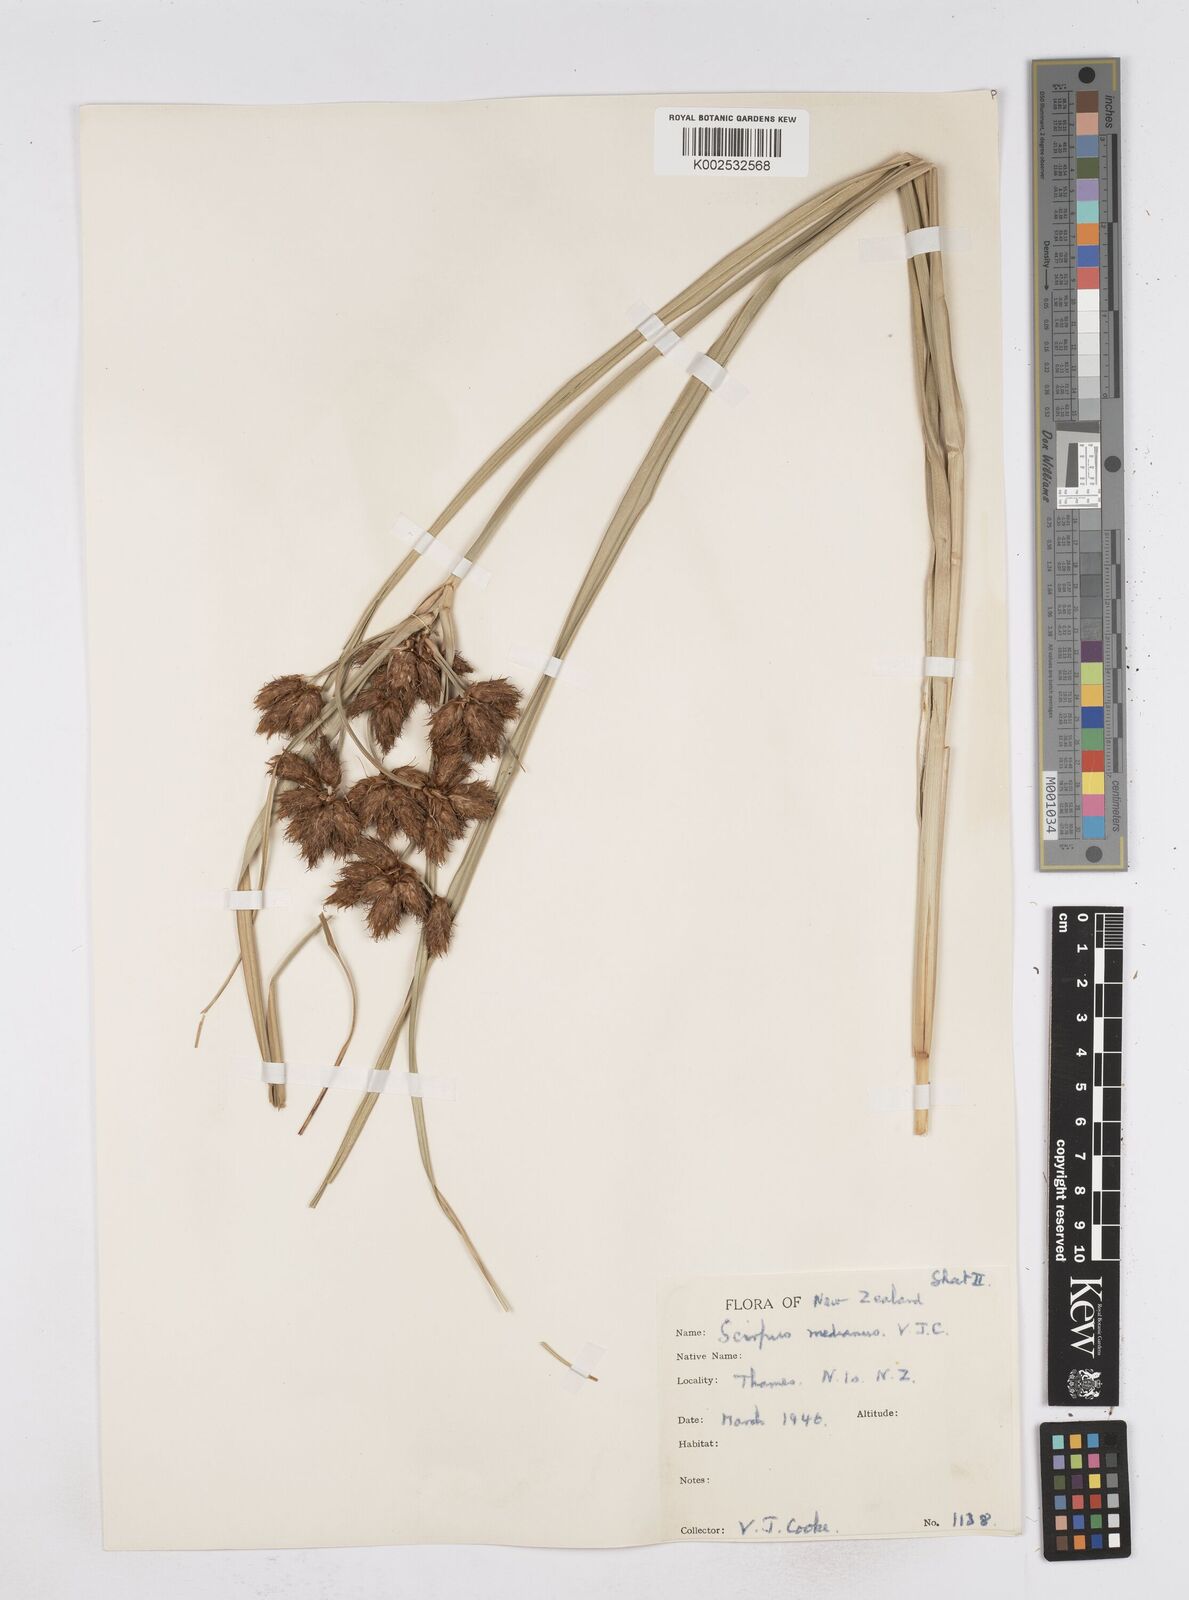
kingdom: Plantae
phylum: Tracheophyta
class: Liliopsida
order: Poales
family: Cyperaceae
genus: Bolboschoenus
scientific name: Bolboschoenus medianus
